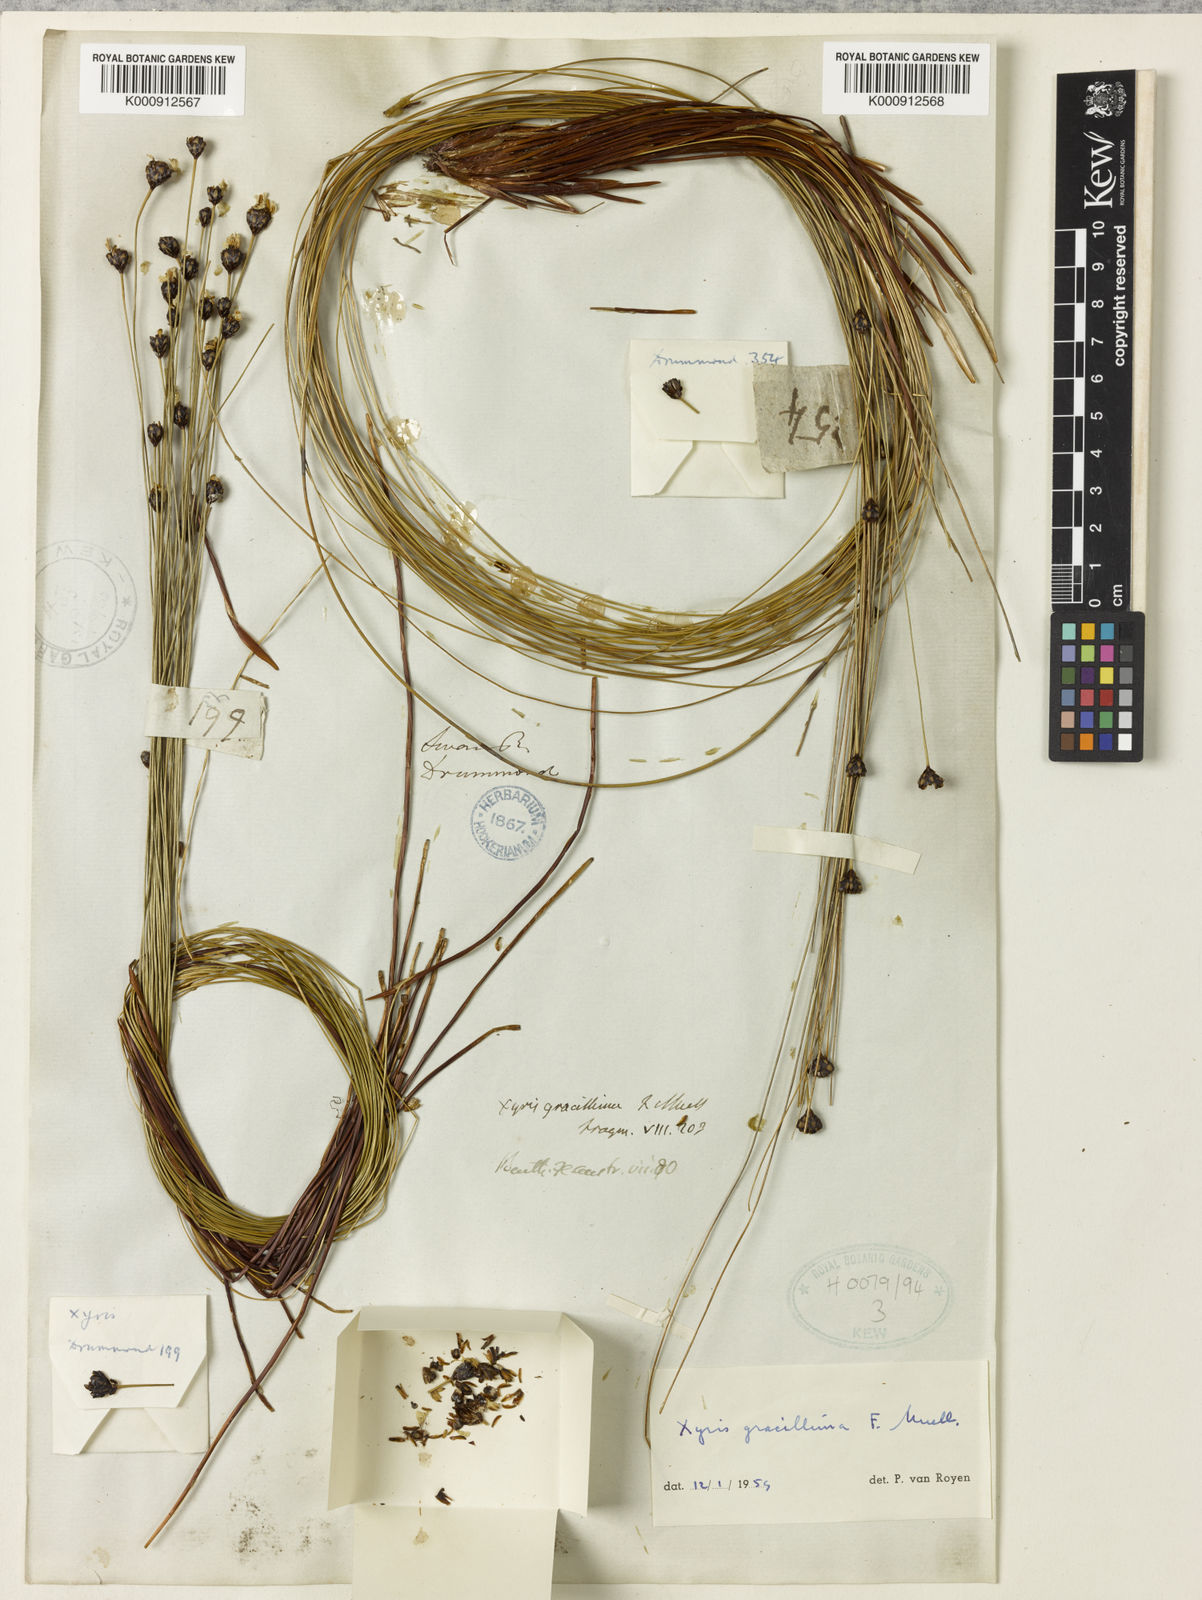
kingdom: Plantae
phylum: Tracheophyta
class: Liliopsida
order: Poales
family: Xyridaceae
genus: Xyris
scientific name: Xyris gracilis
